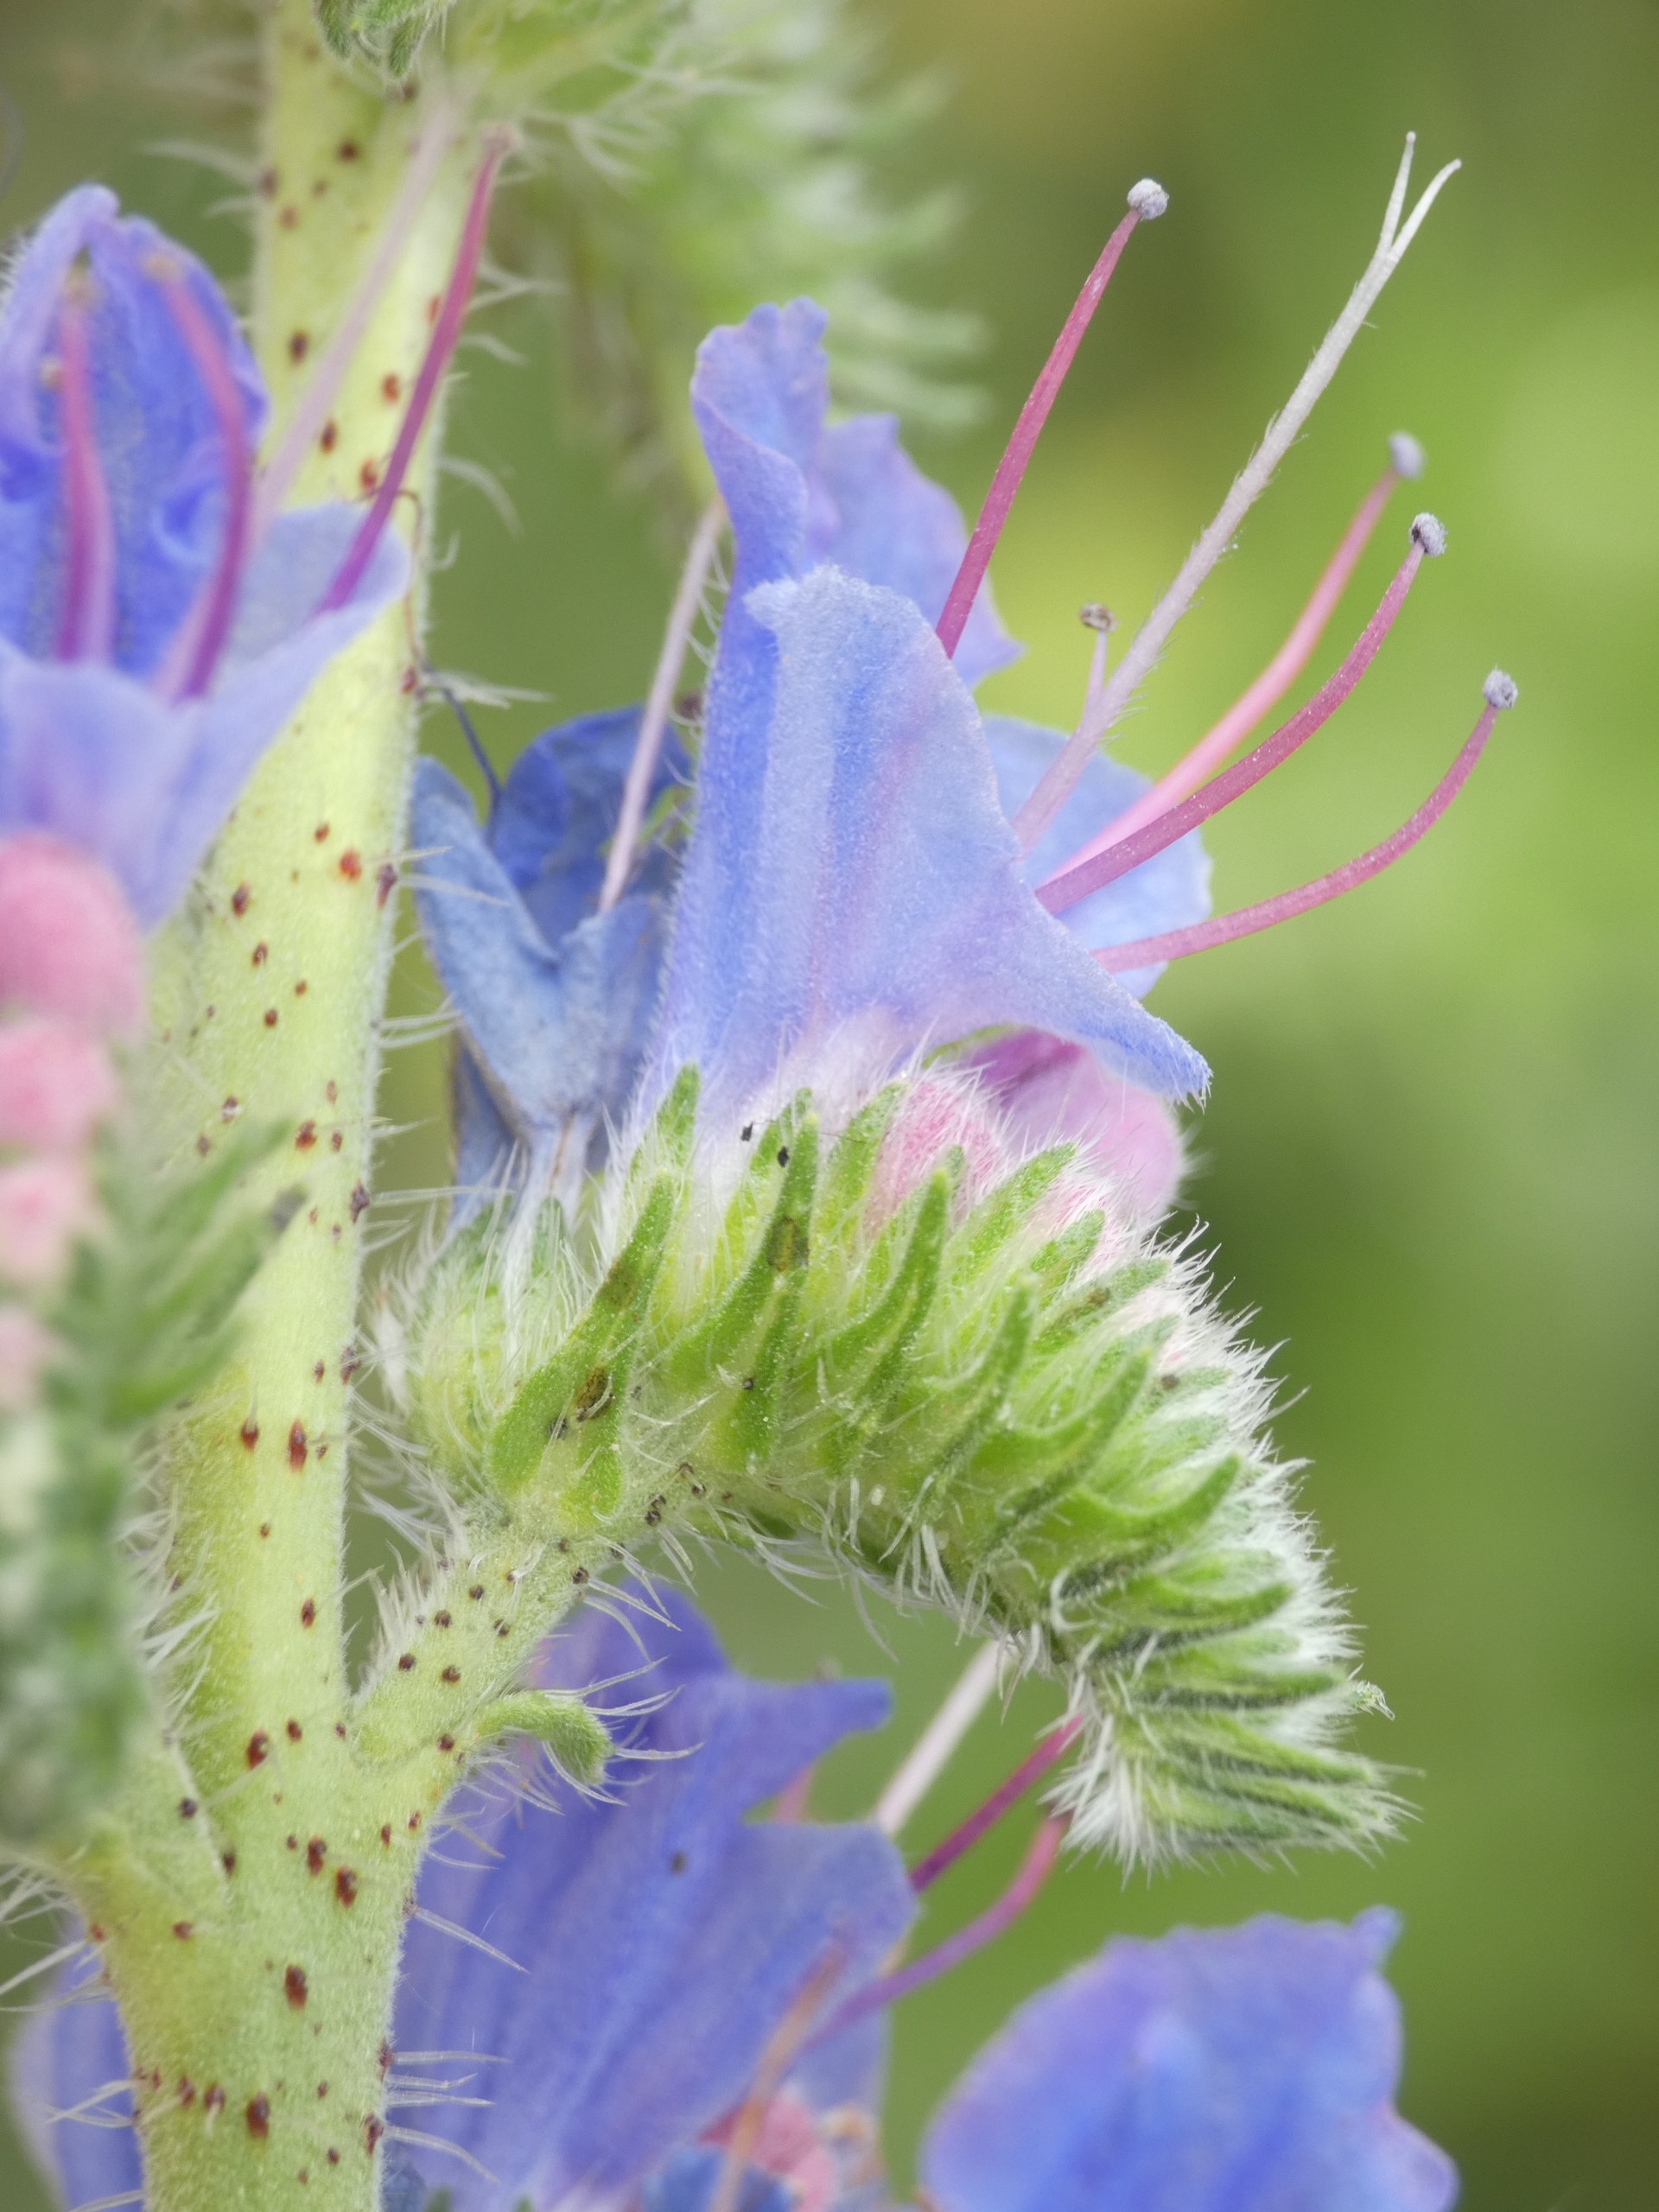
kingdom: Plantae
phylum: Tracheophyta
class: Magnoliopsida
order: Boraginales
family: Boraginaceae
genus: Echium
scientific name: Echium vulgare
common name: Slangehoved
